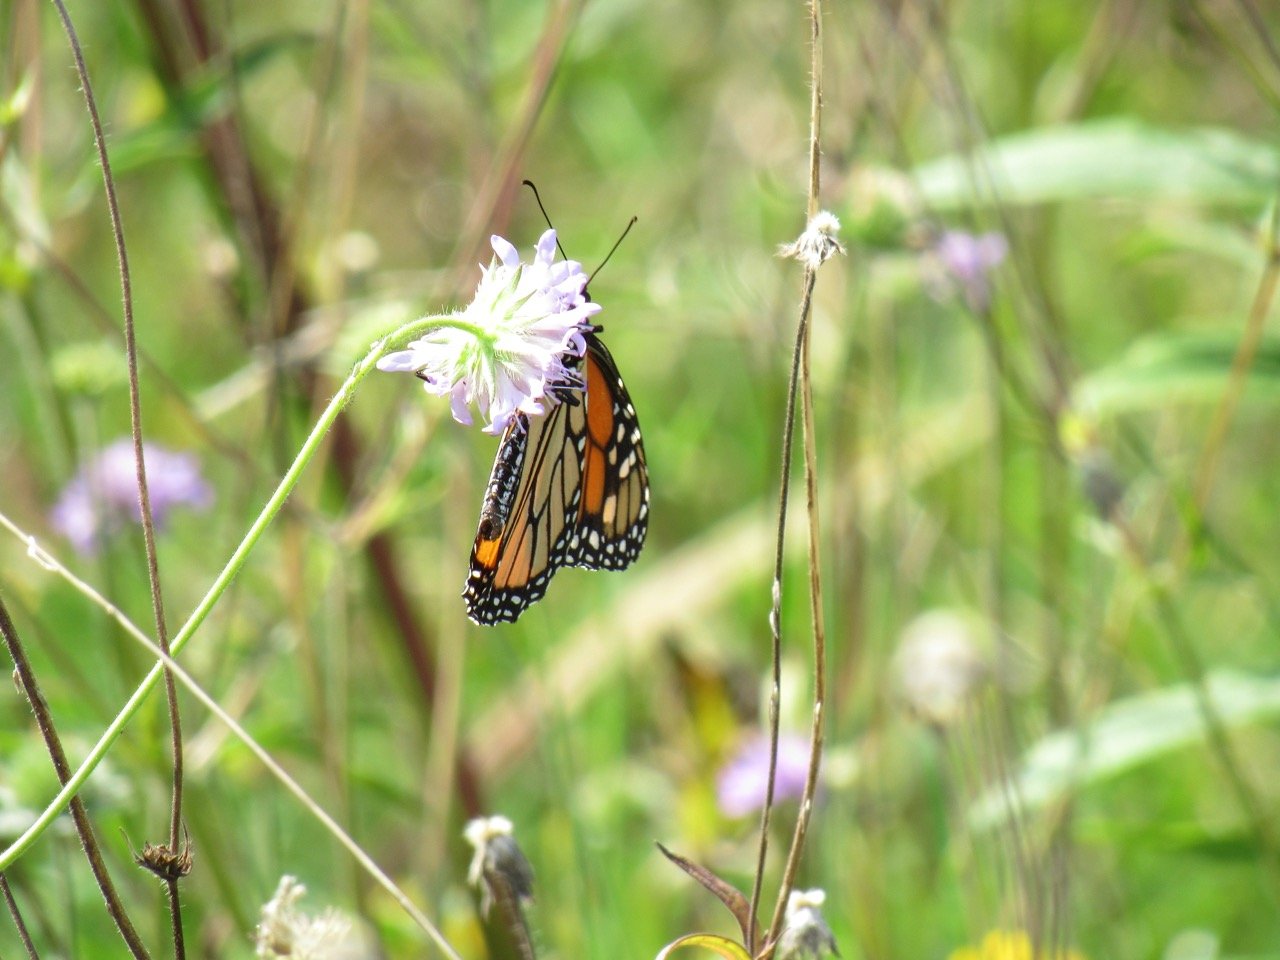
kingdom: Animalia
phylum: Arthropoda
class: Insecta
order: Lepidoptera
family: Nymphalidae
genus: Danaus
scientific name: Danaus plexippus
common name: Monarch
